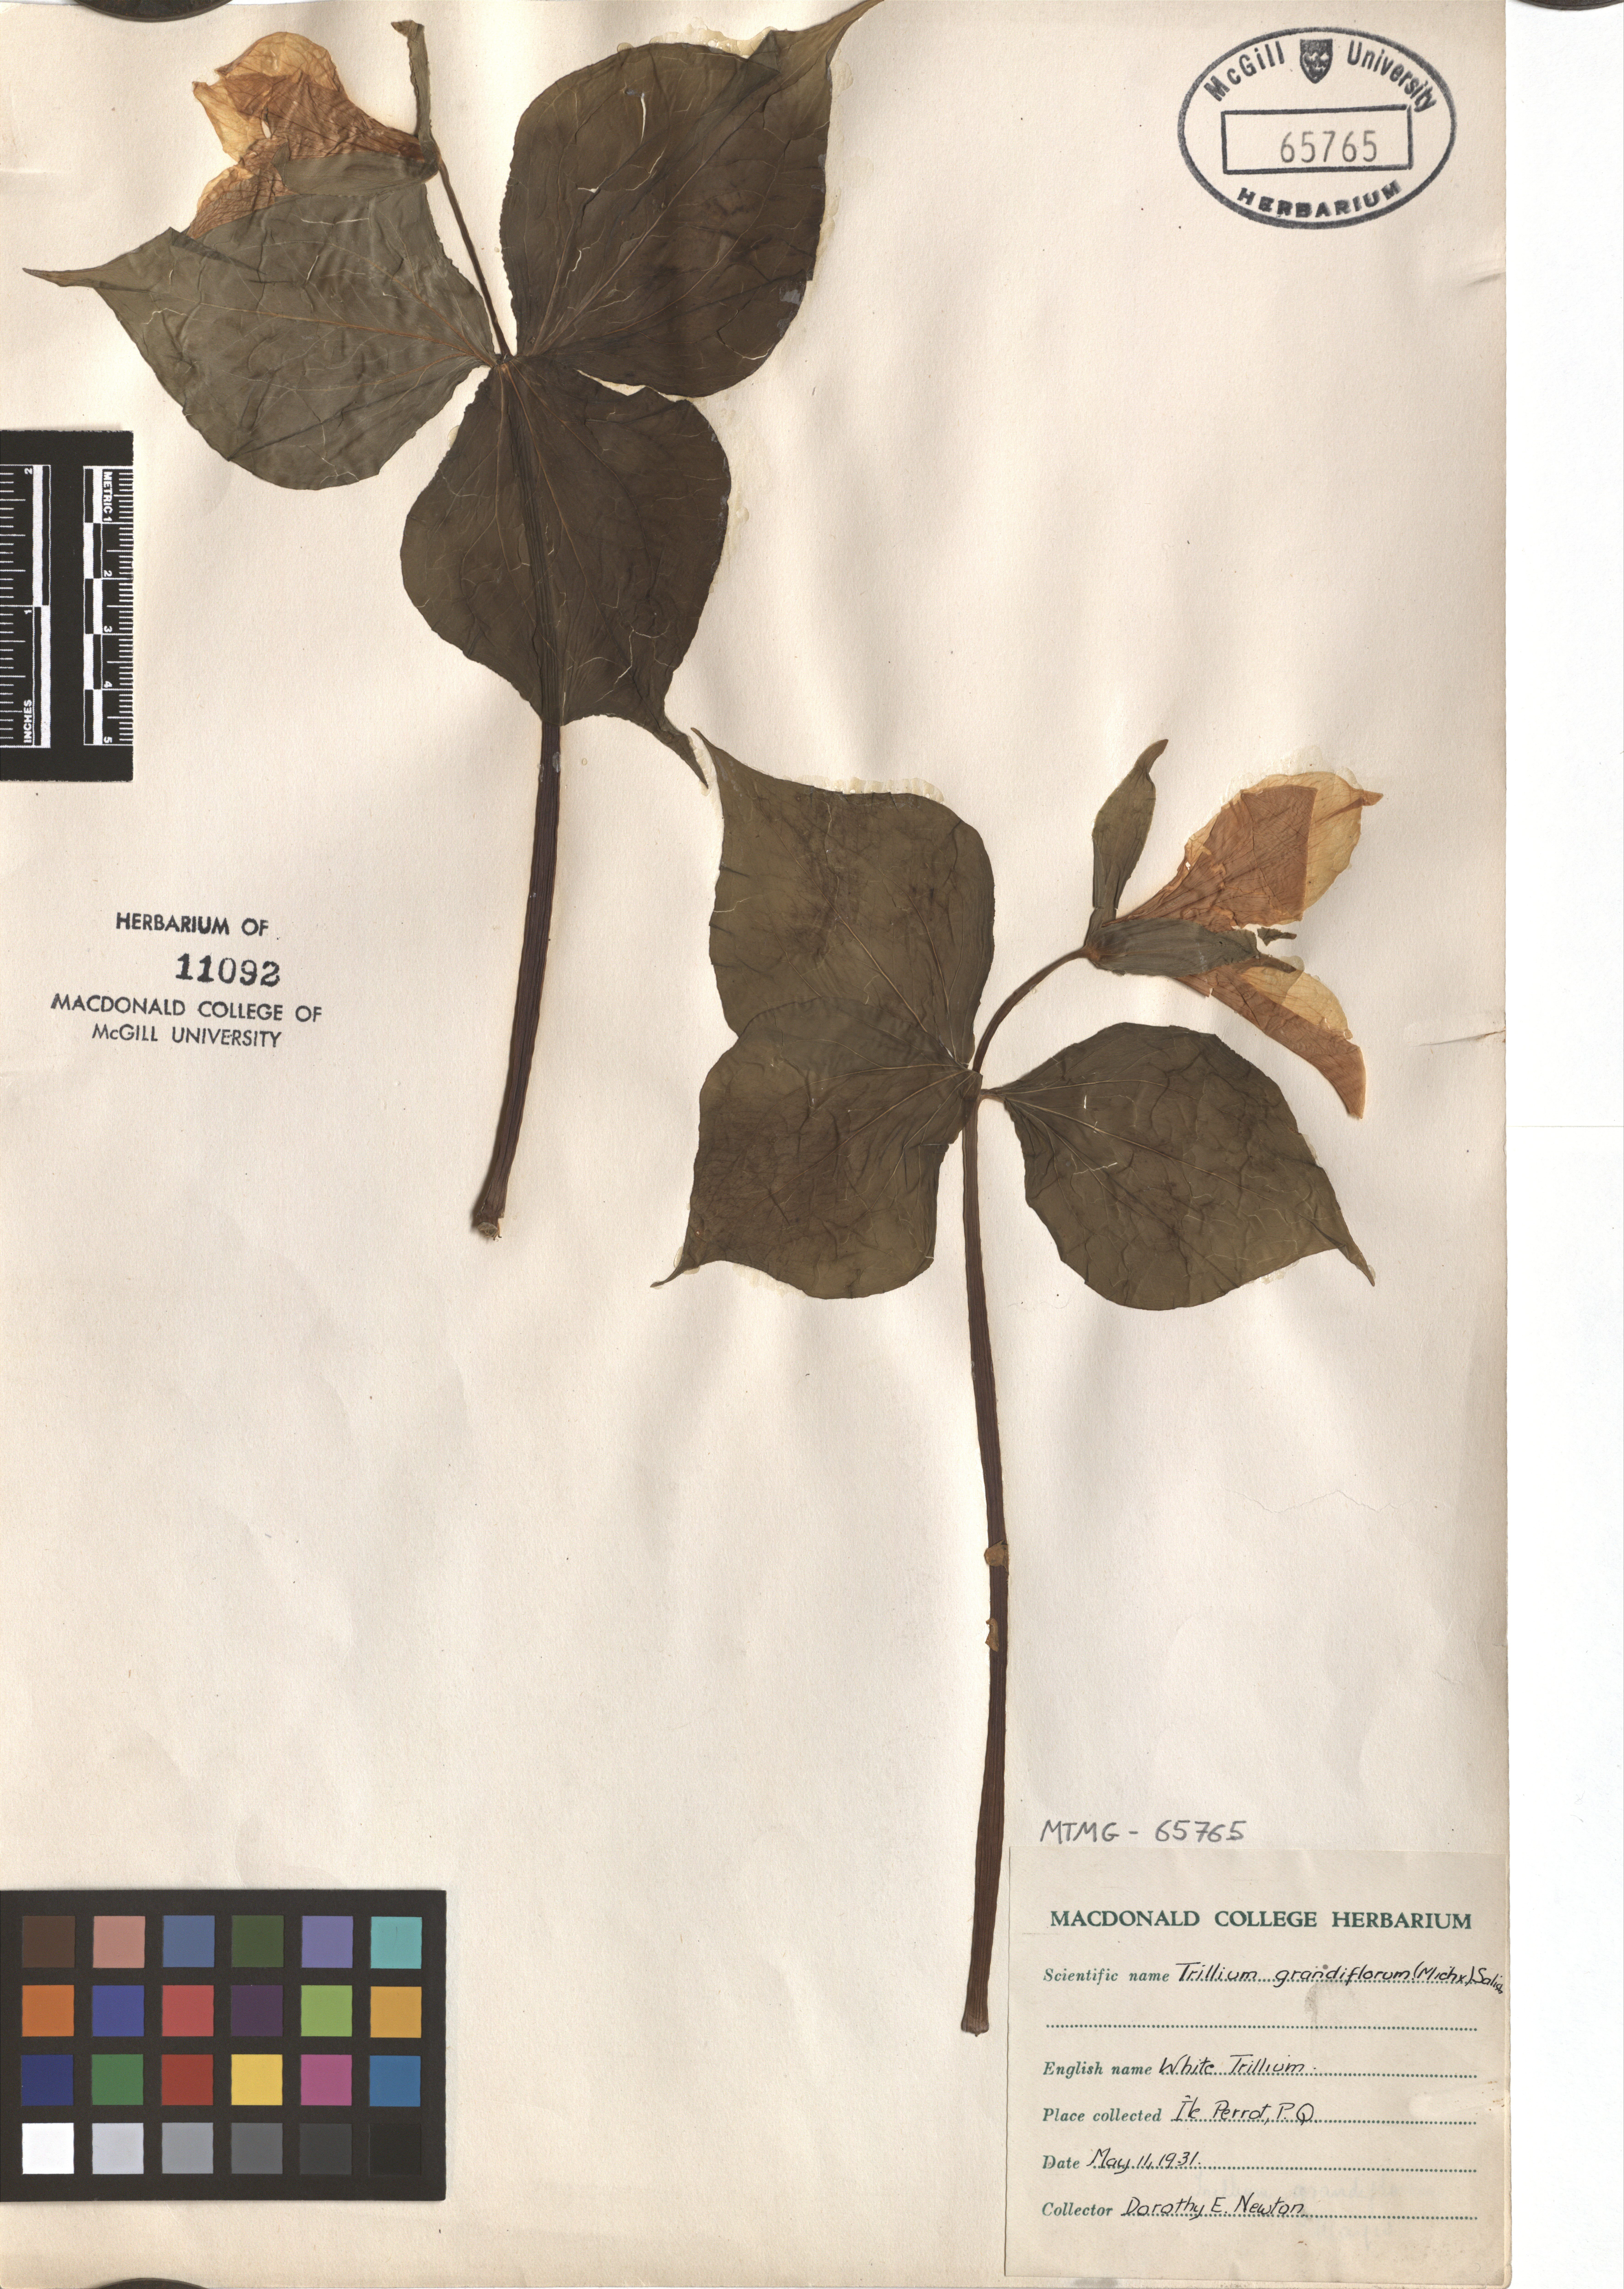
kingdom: Plantae
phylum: Tracheophyta
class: Liliopsida
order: Liliales
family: Melanthiaceae
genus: Trillium
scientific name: Trillium grandiflorum
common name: Great white trillium
